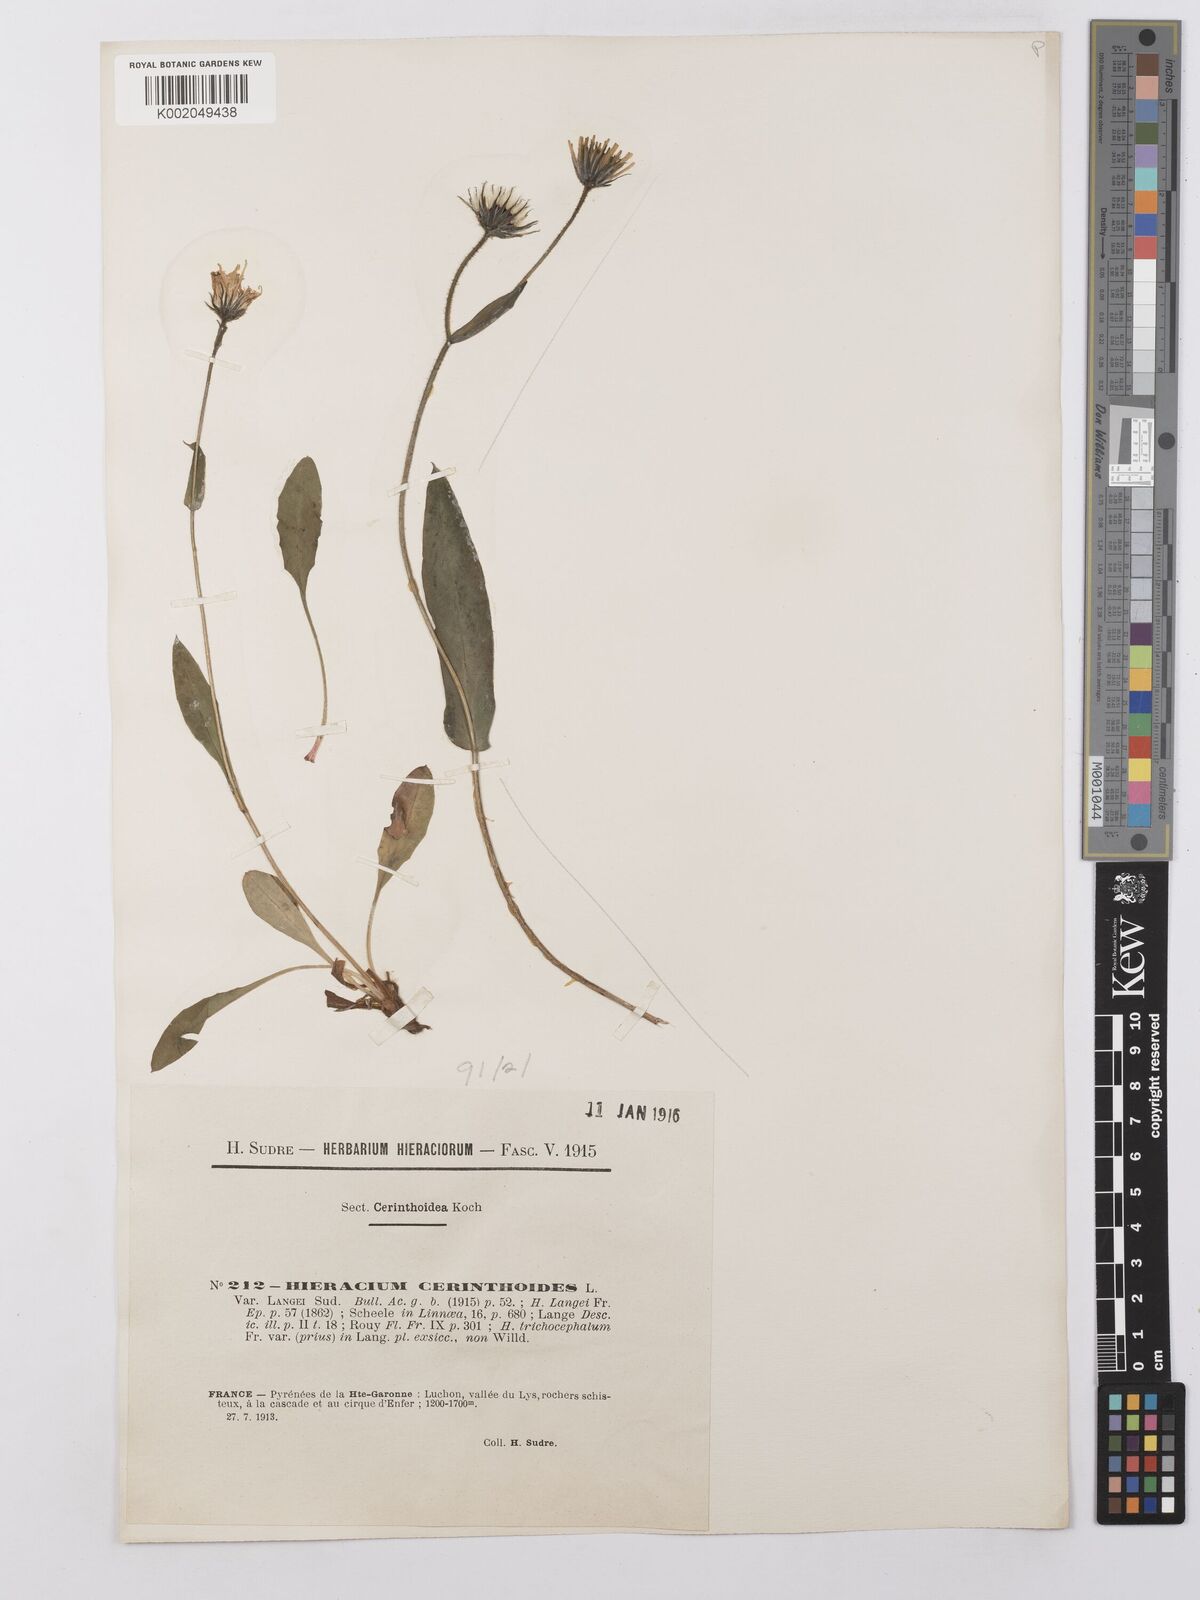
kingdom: Plantae
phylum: Tracheophyta
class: Magnoliopsida
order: Asterales
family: Asteraceae
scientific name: Asteraceae
